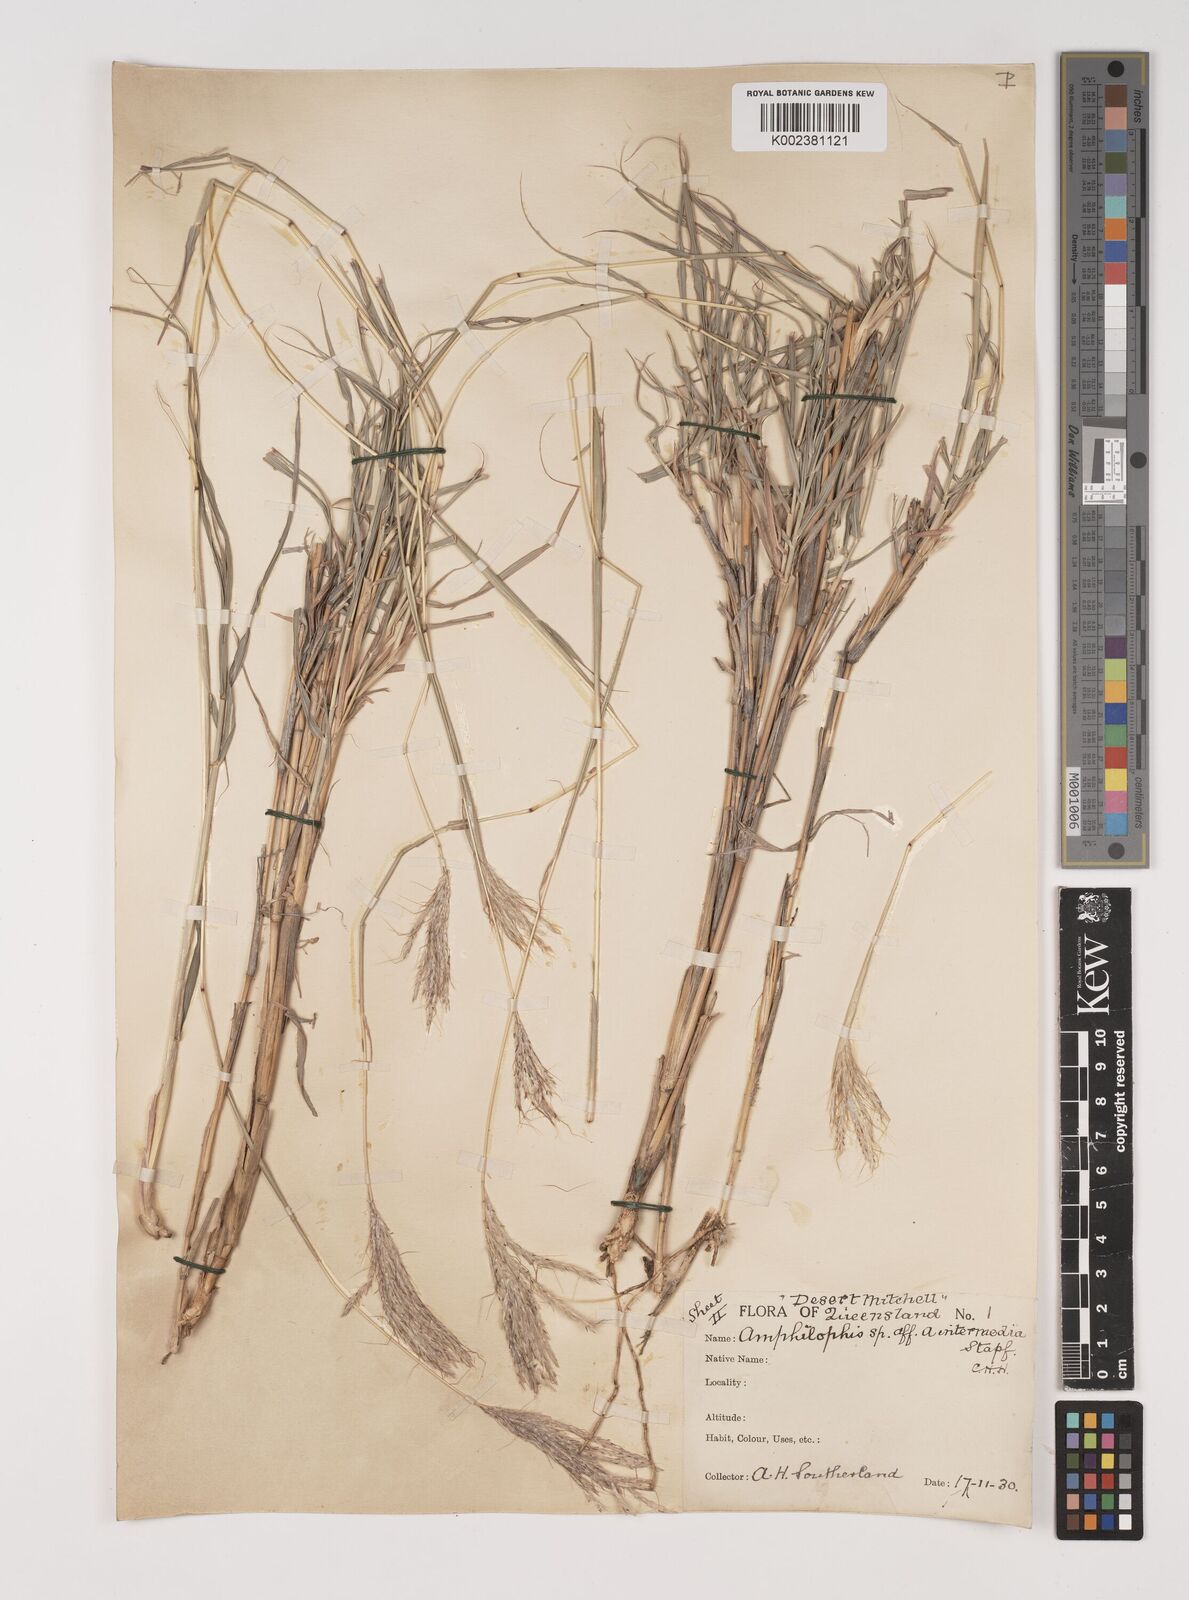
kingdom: Plantae
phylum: Tracheophyta
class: Liliopsida
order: Poales
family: Poaceae
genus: Bothriochloa
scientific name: Bothriochloa ewartiana
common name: Desert-bluegrass
